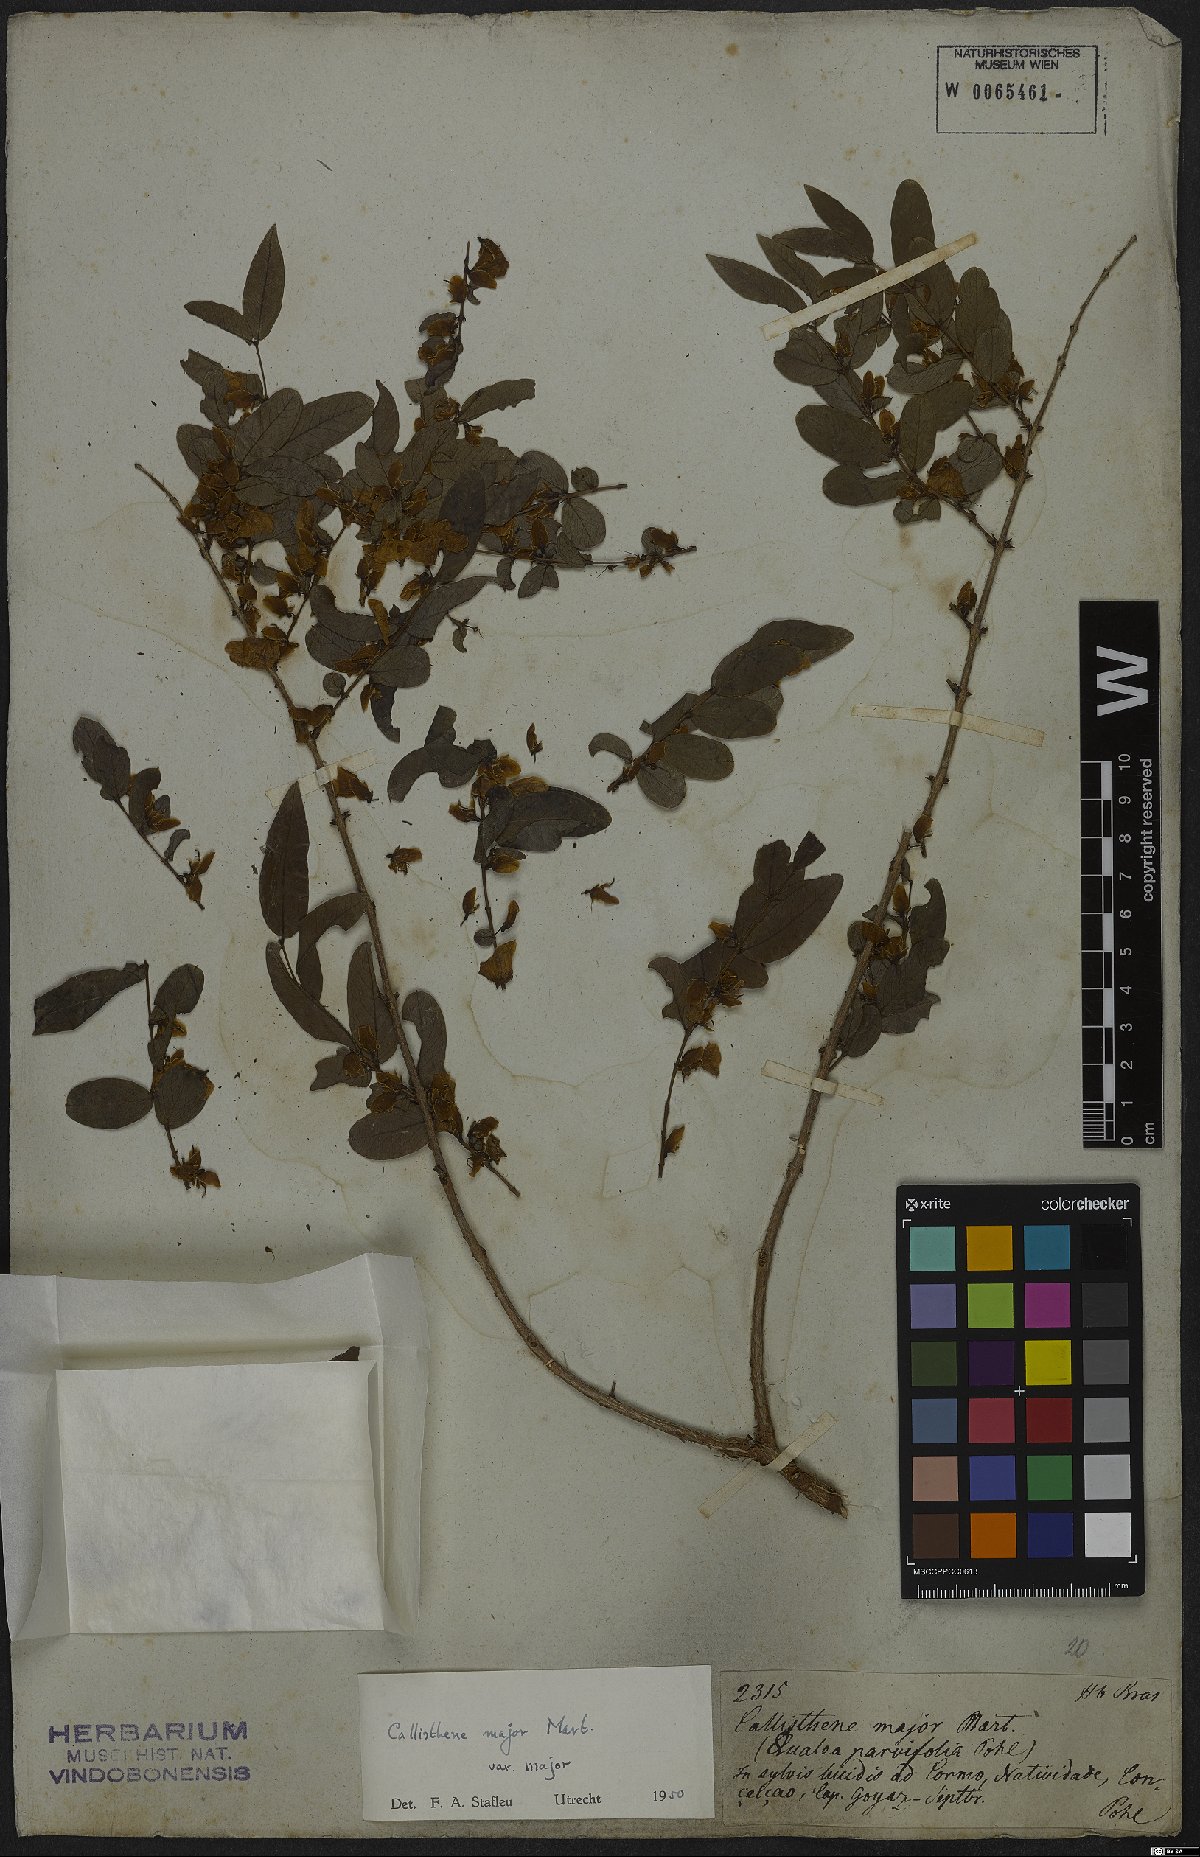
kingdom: Plantae
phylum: Tracheophyta
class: Magnoliopsida
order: Myrtales
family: Vochysiaceae
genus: Callisthene
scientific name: Callisthene major
